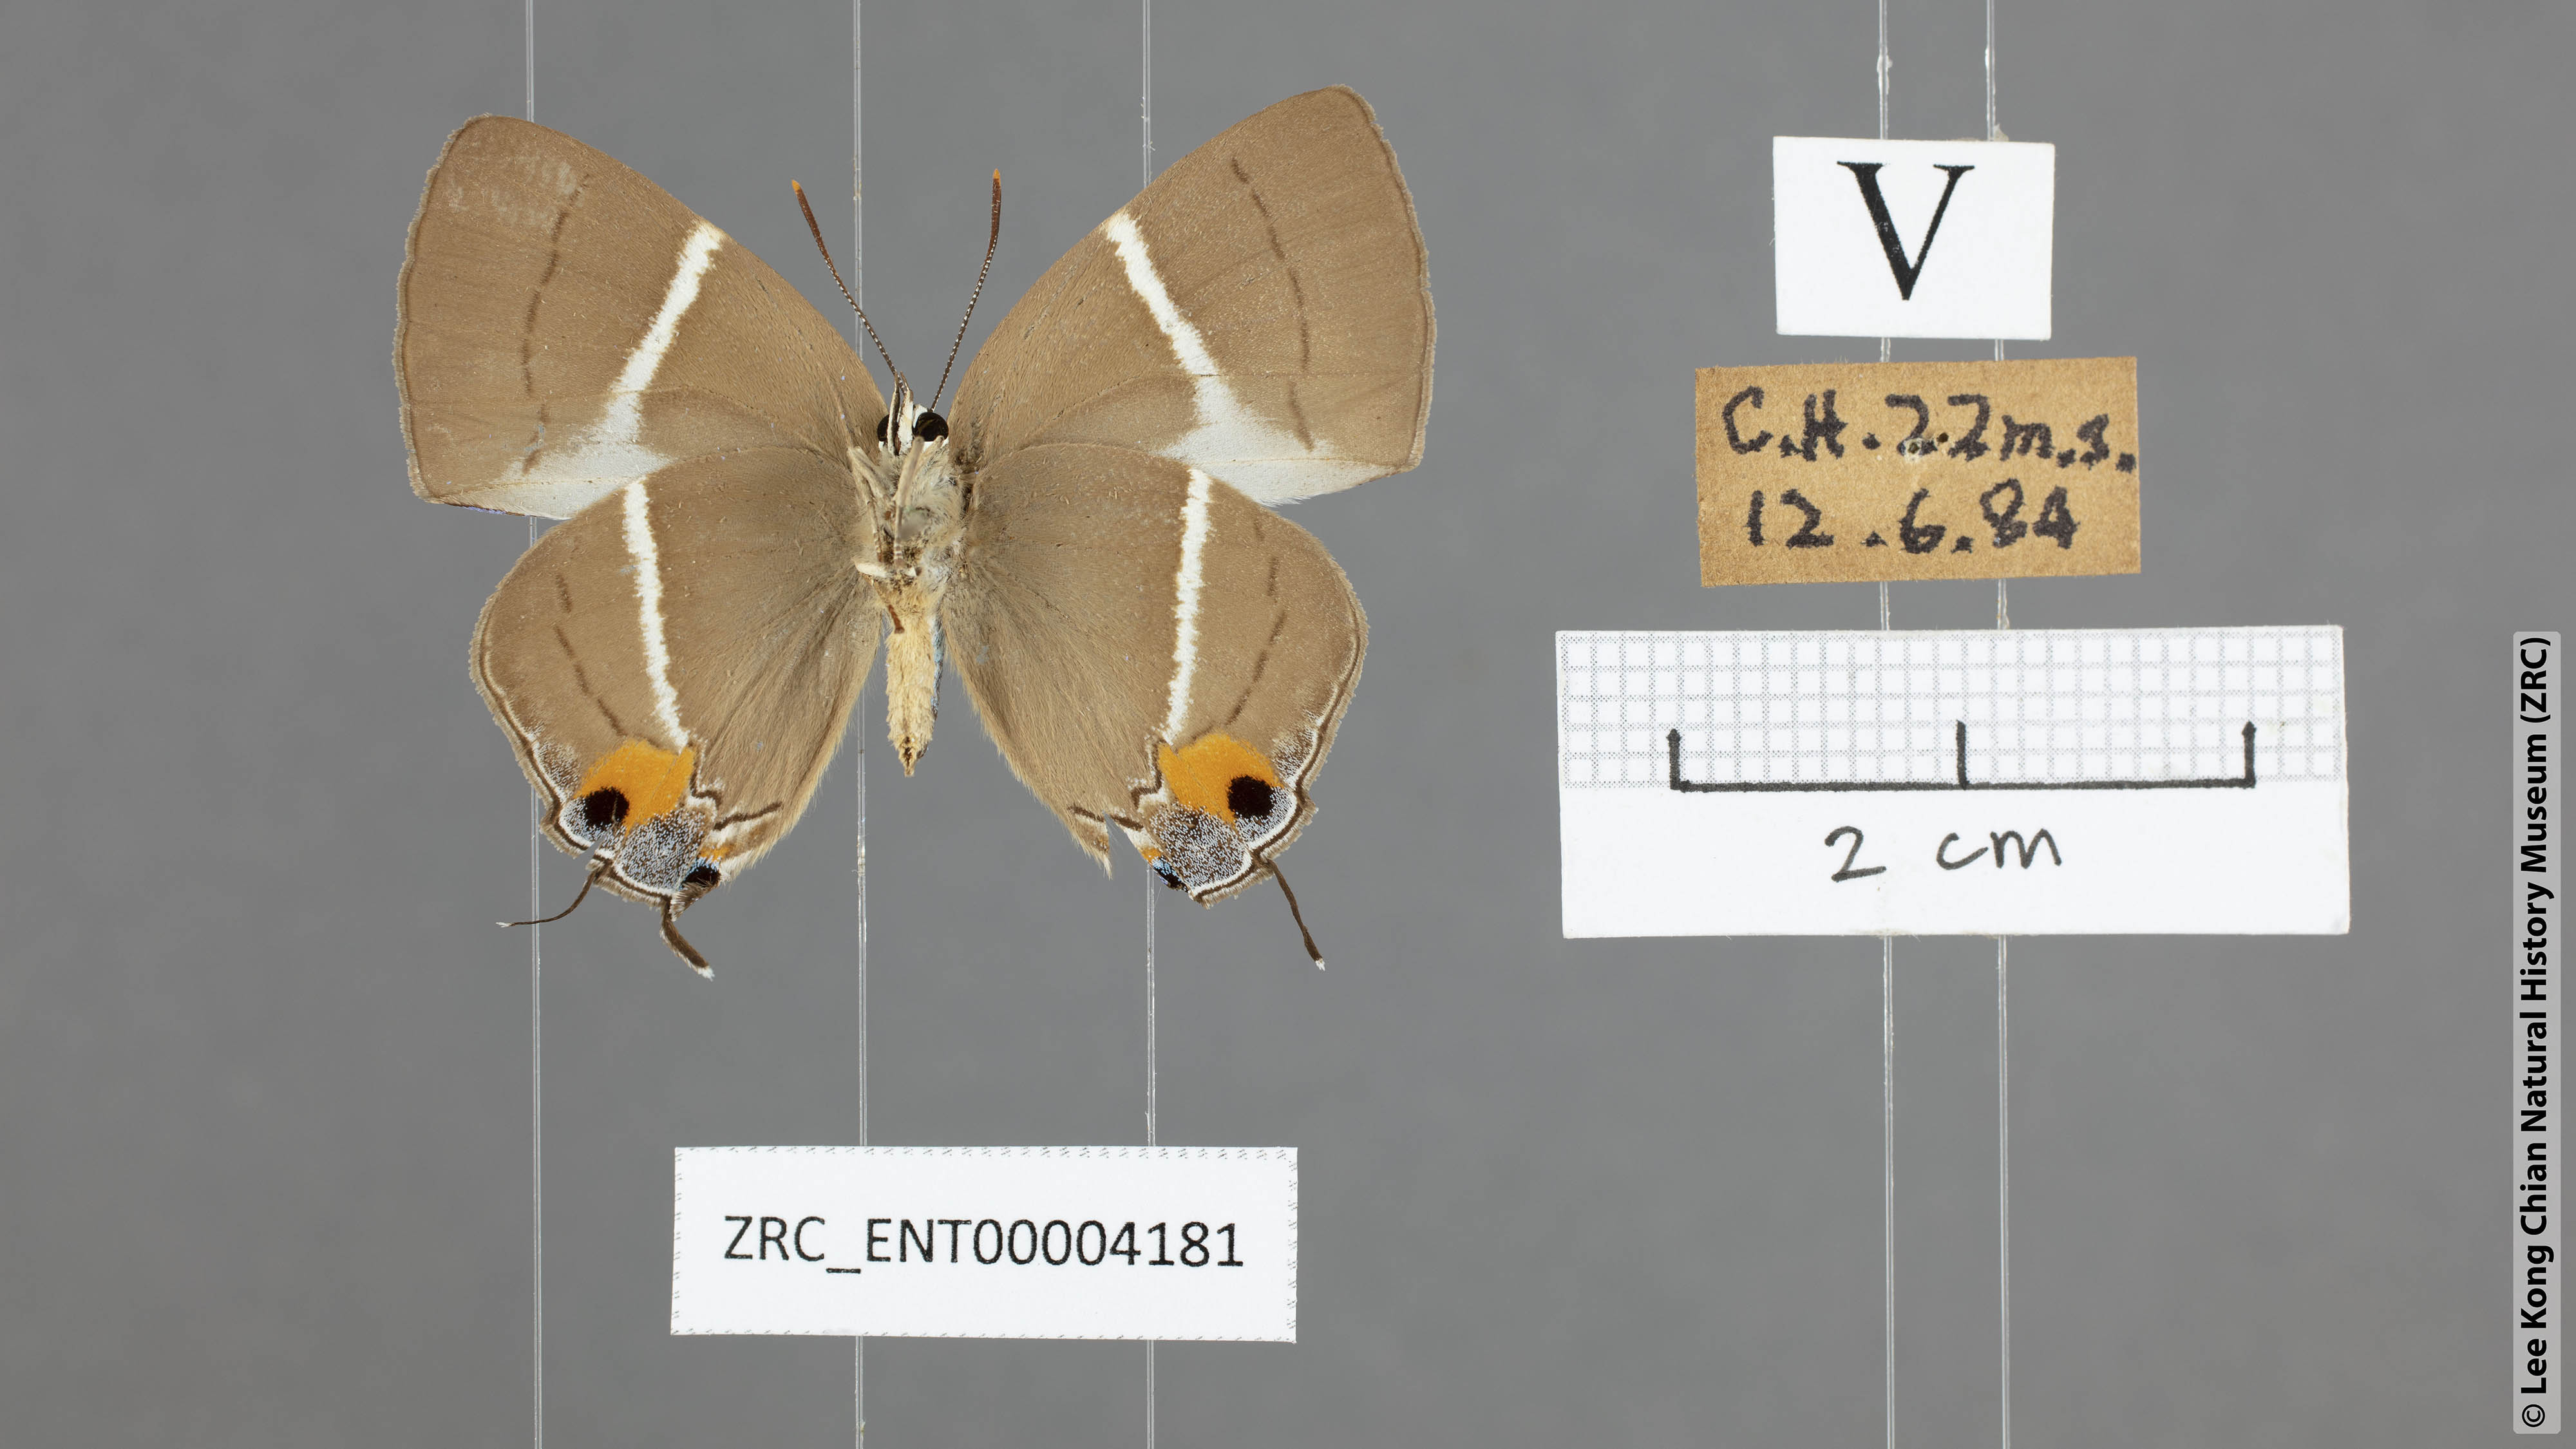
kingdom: Animalia
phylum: Arthropoda
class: Insecta
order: Lepidoptera
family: Lycaenidae
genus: Dacalana
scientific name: Dacalana
